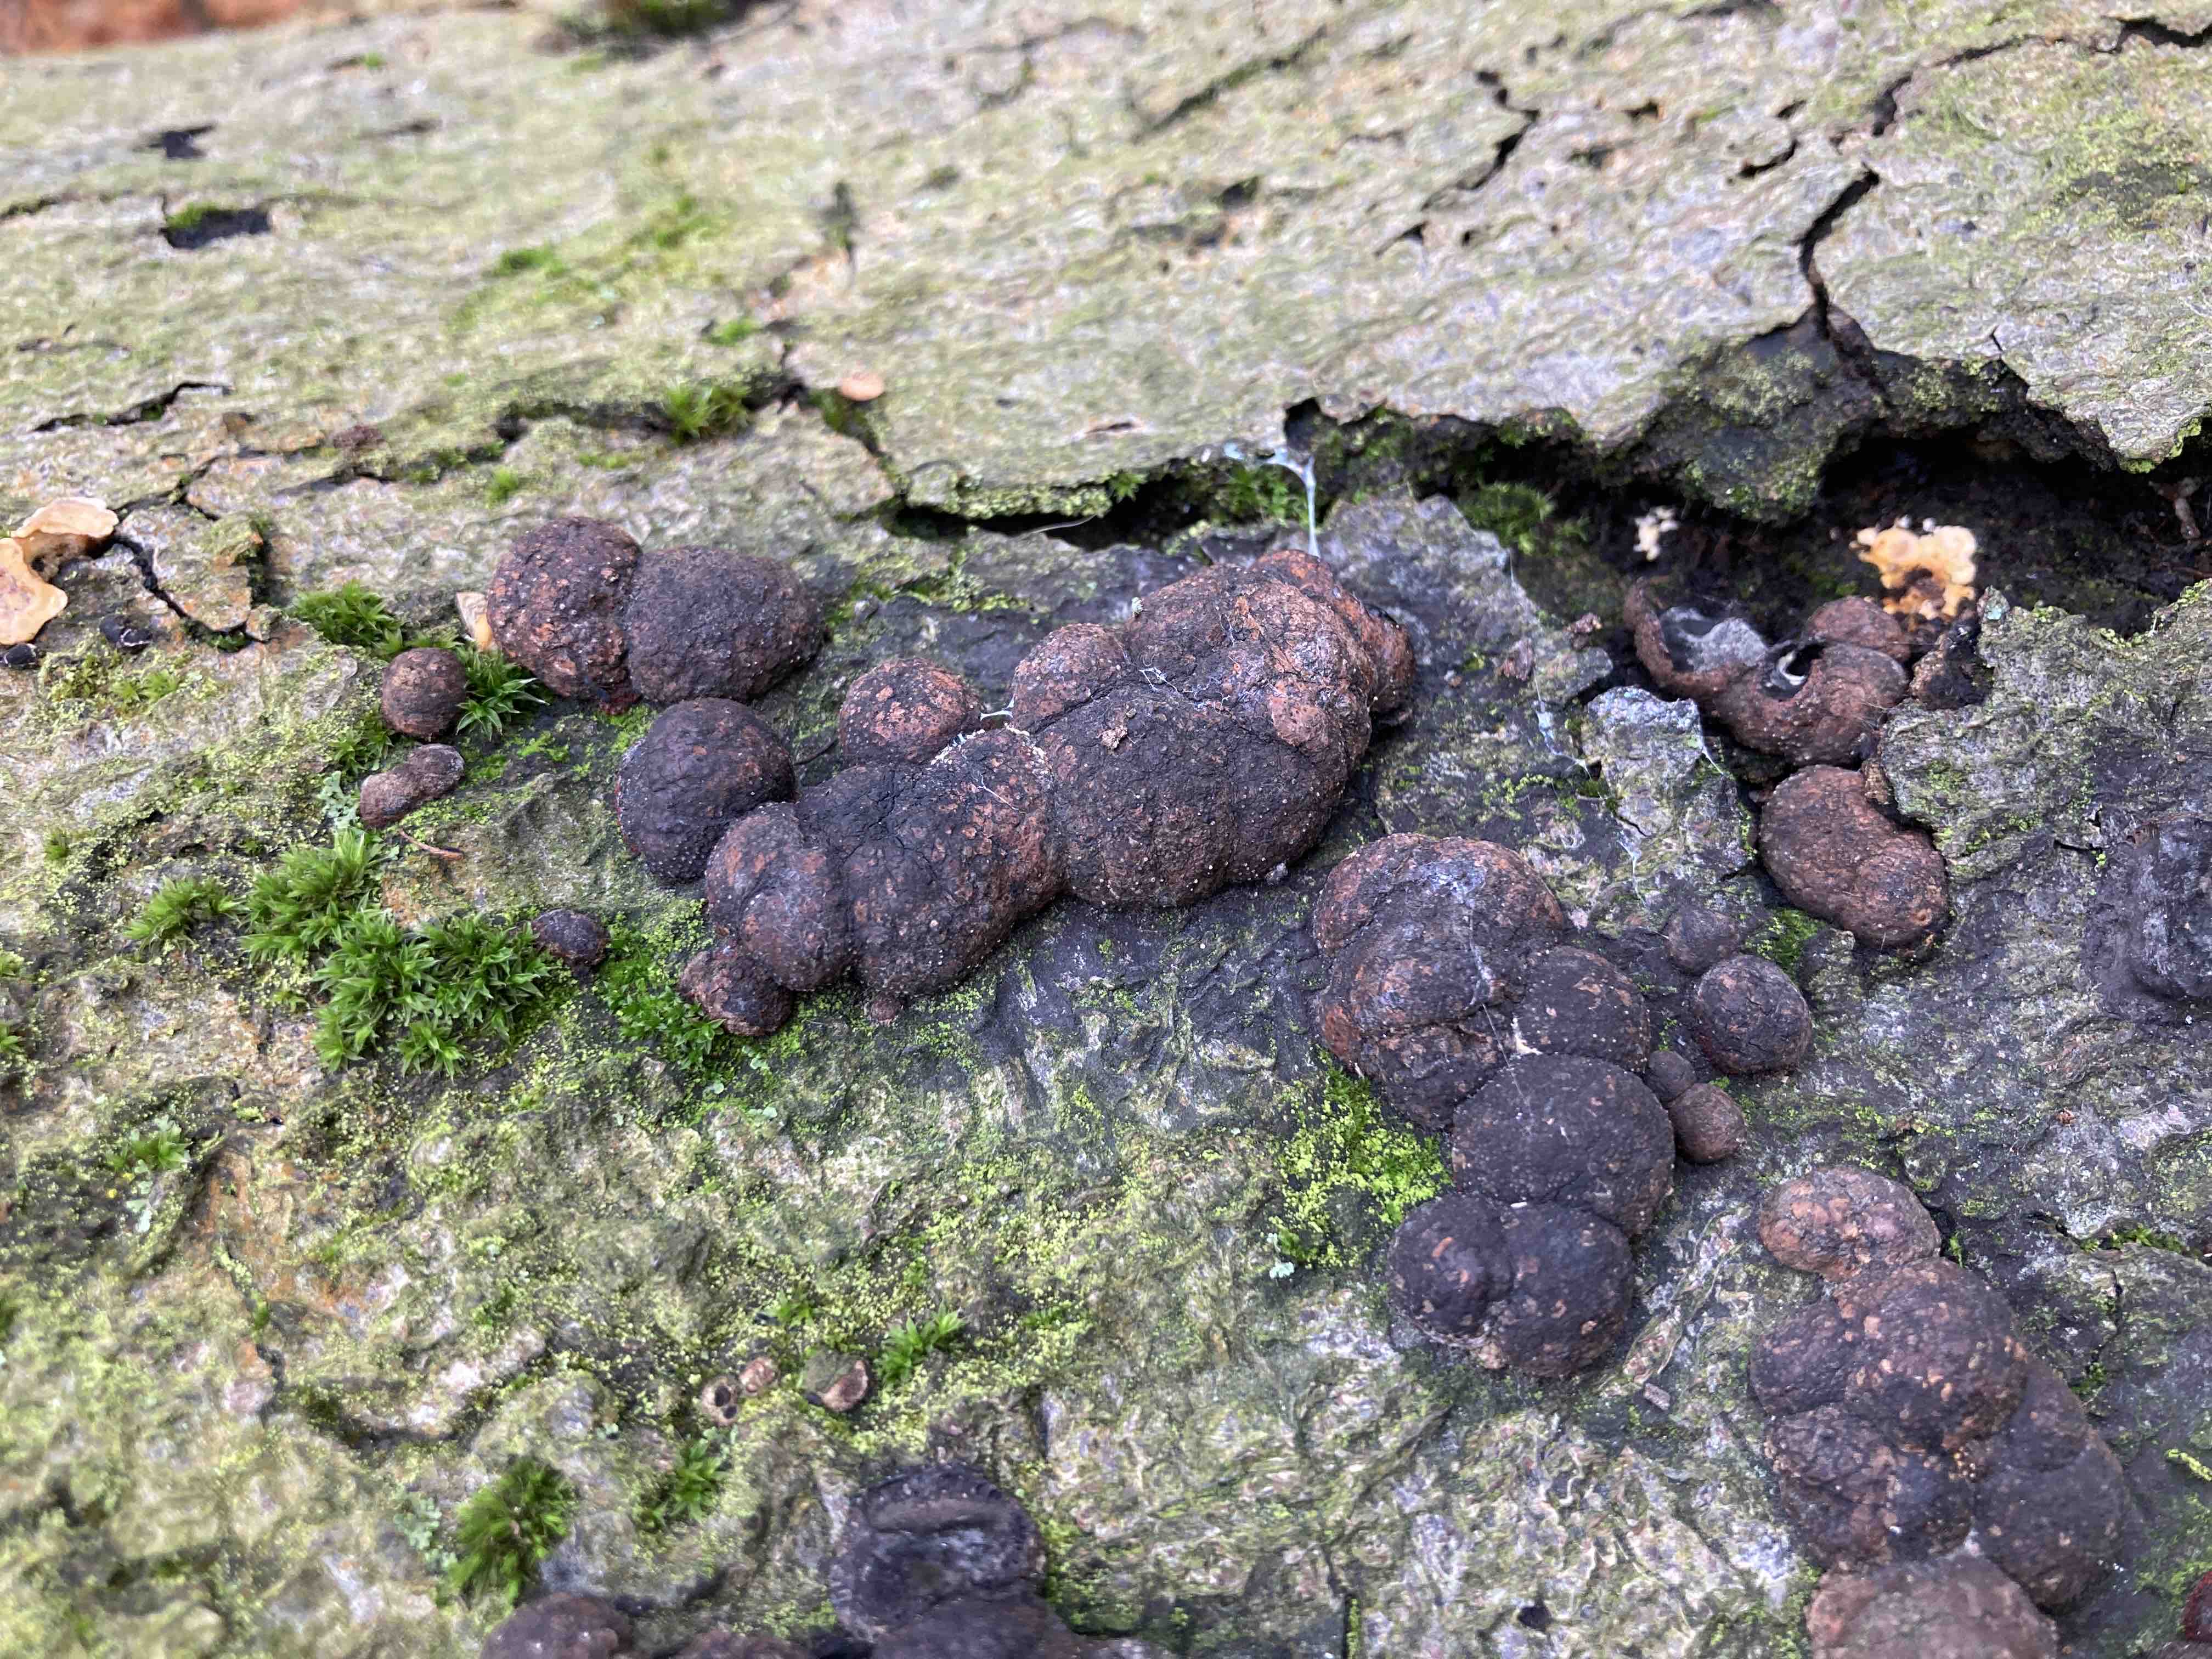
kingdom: Fungi
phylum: Ascomycota
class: Sordariomycetes
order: Xylariales
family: Hypoxylaceae
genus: Hypoxylon
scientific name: Hypoxylon fragiforme
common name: kuljordbær
